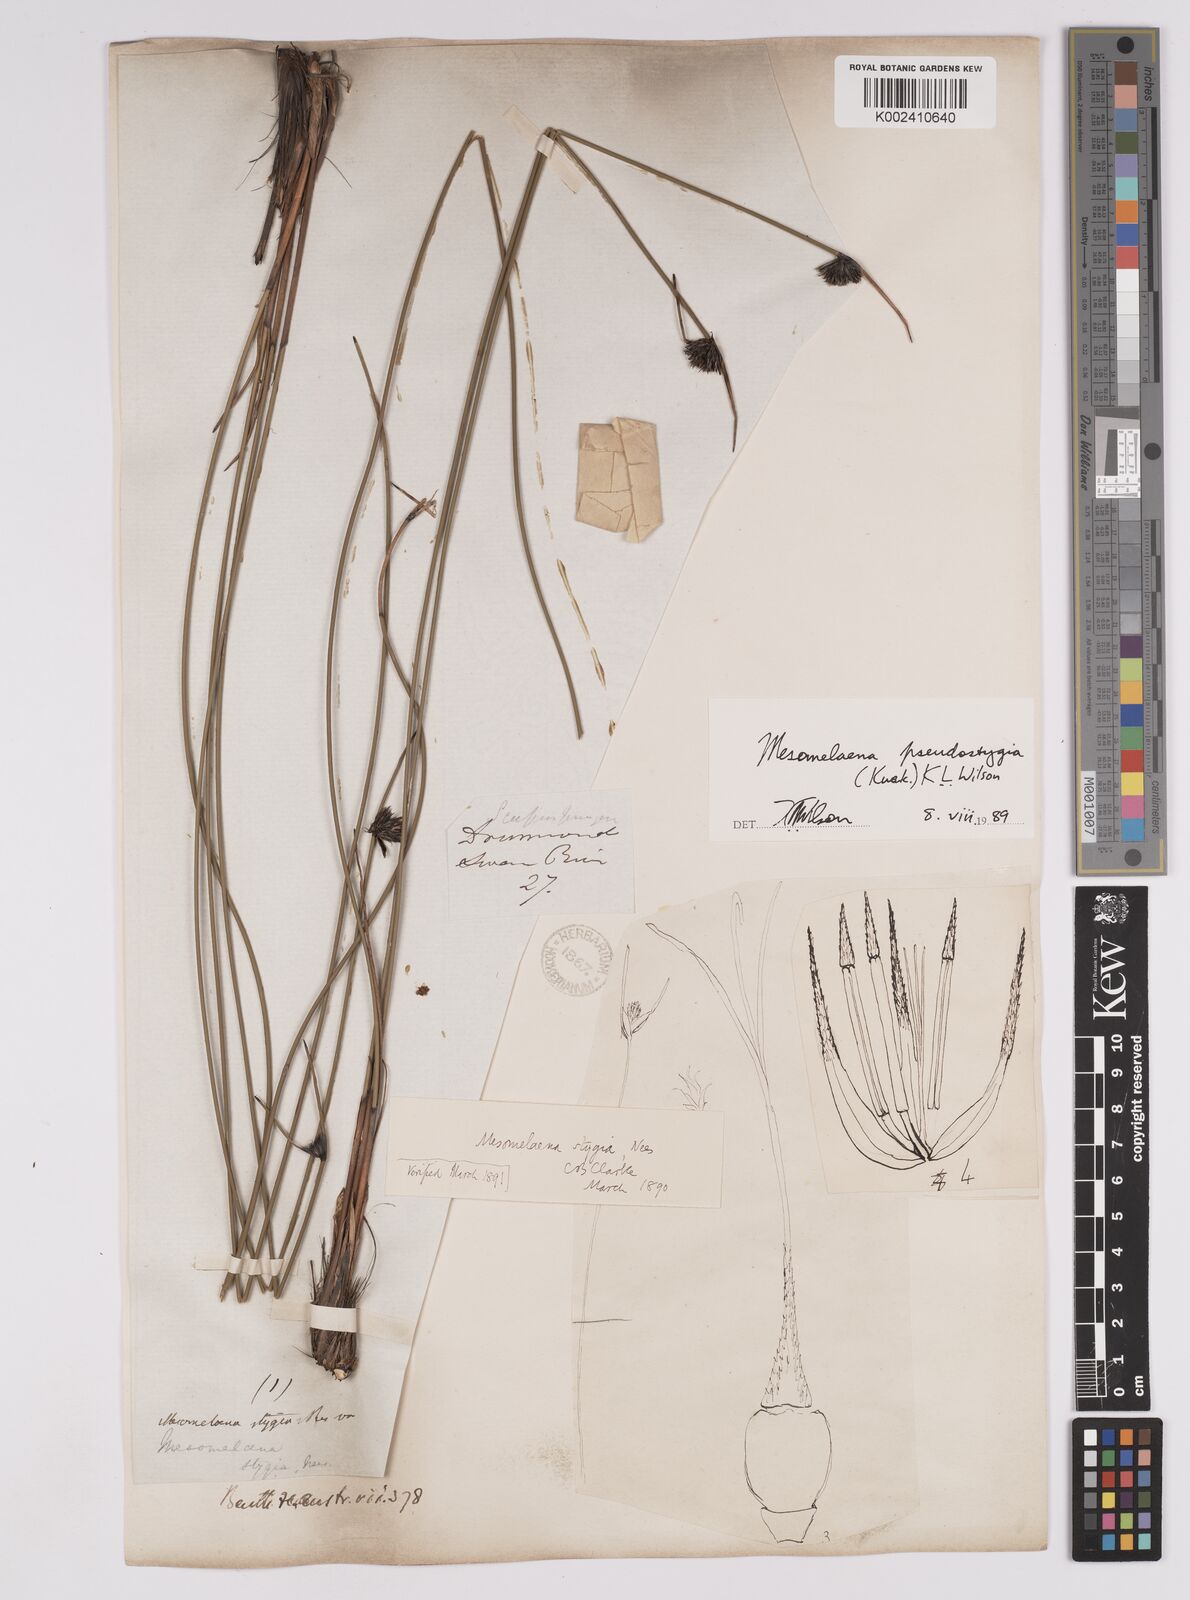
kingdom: Plantae
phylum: Tracheophyta
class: Liliopsida
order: Poales
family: Cyperaceae
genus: Mesomelaena
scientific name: Mesomelaena pseudostygia
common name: Semaphore sedge
